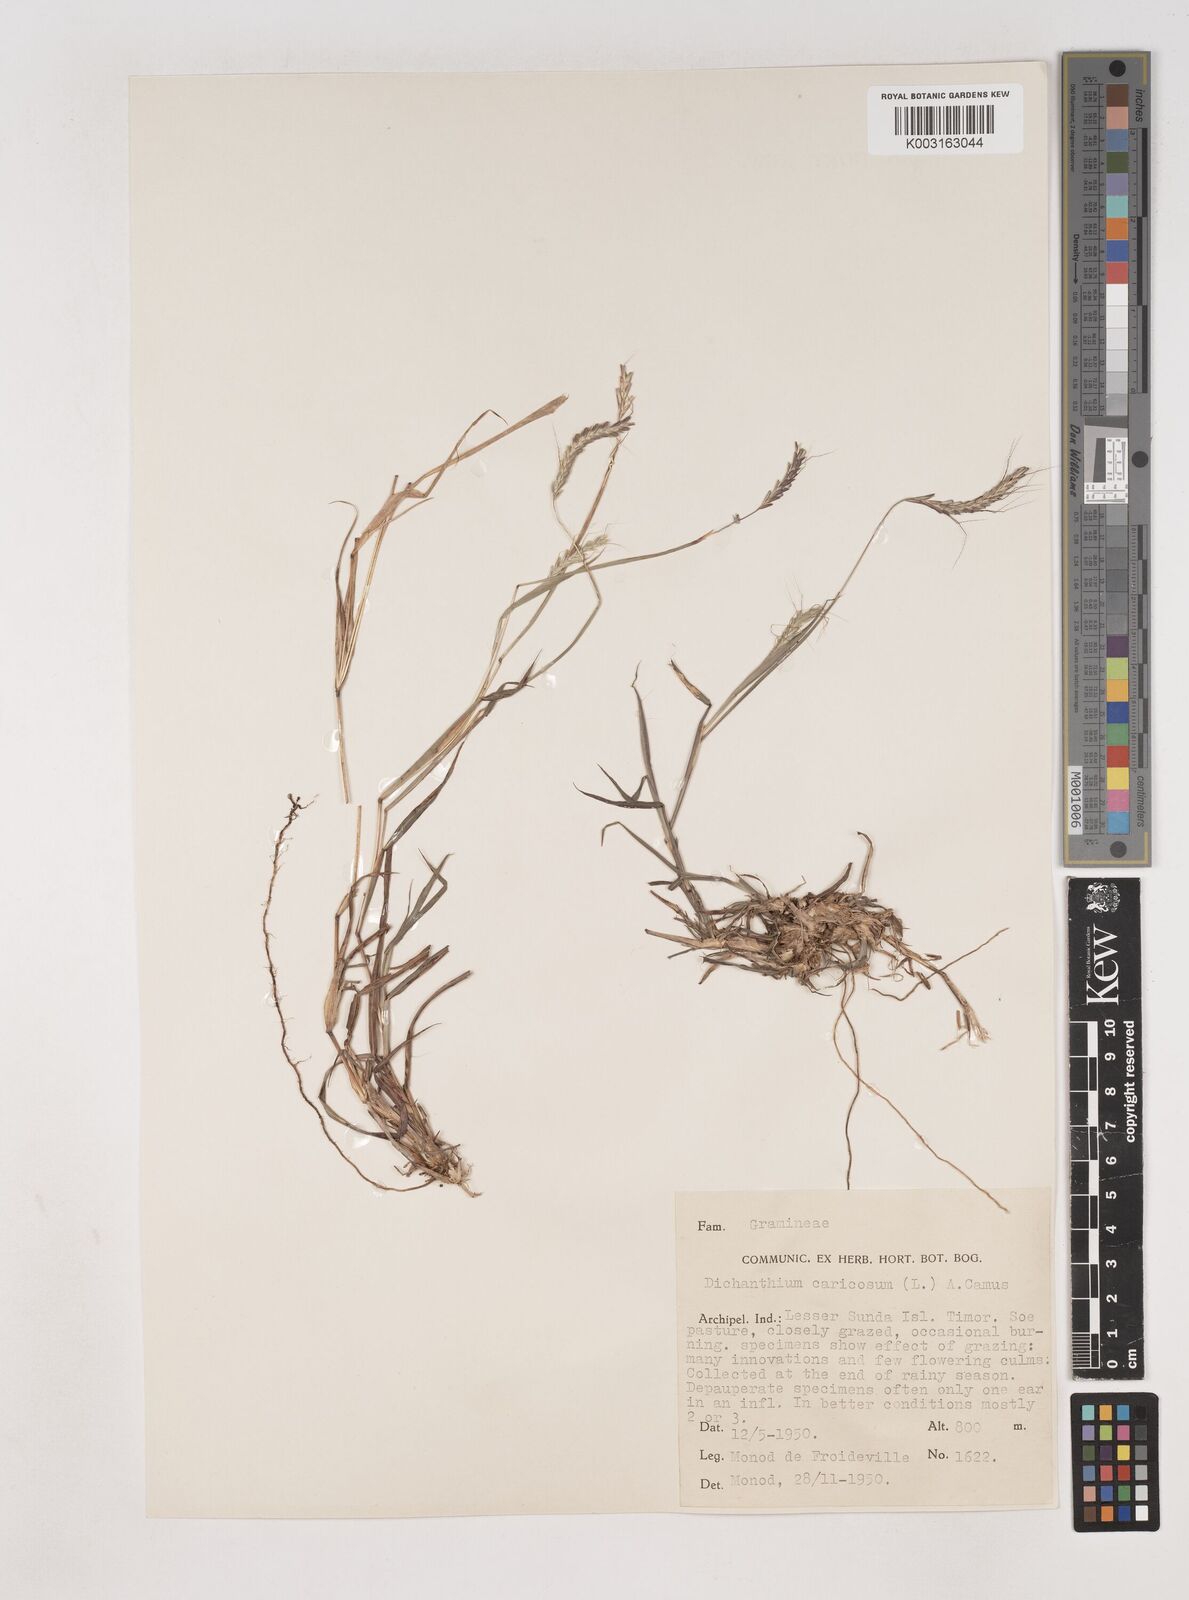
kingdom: Plantae
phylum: Tracheophyta
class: Liliopsida
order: Poales
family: Poaceae
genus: Dichanthium
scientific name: Dichanthium aristatum
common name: Angleton bluestem
